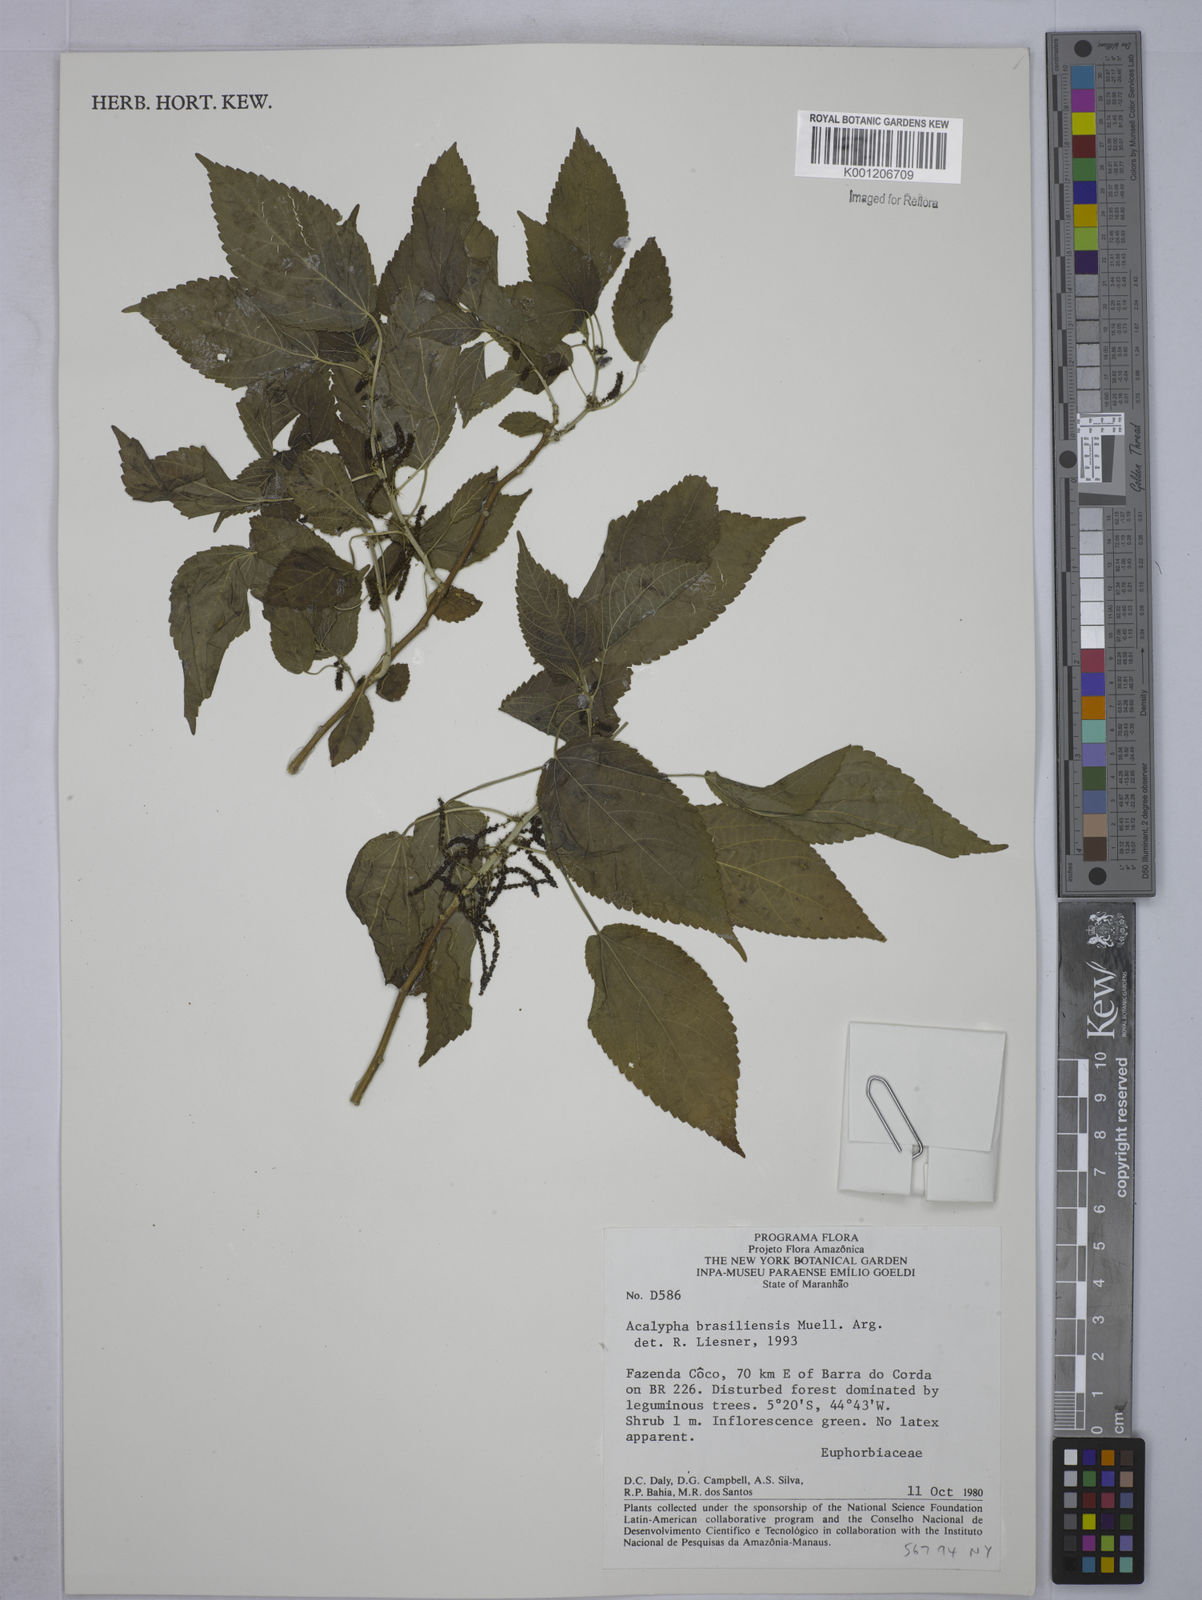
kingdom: Plantae
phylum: Tracheophyta
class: Magnoliopsida
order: Malpighiales
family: Euphorbiaceae
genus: Acalypha
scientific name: Acalypha
